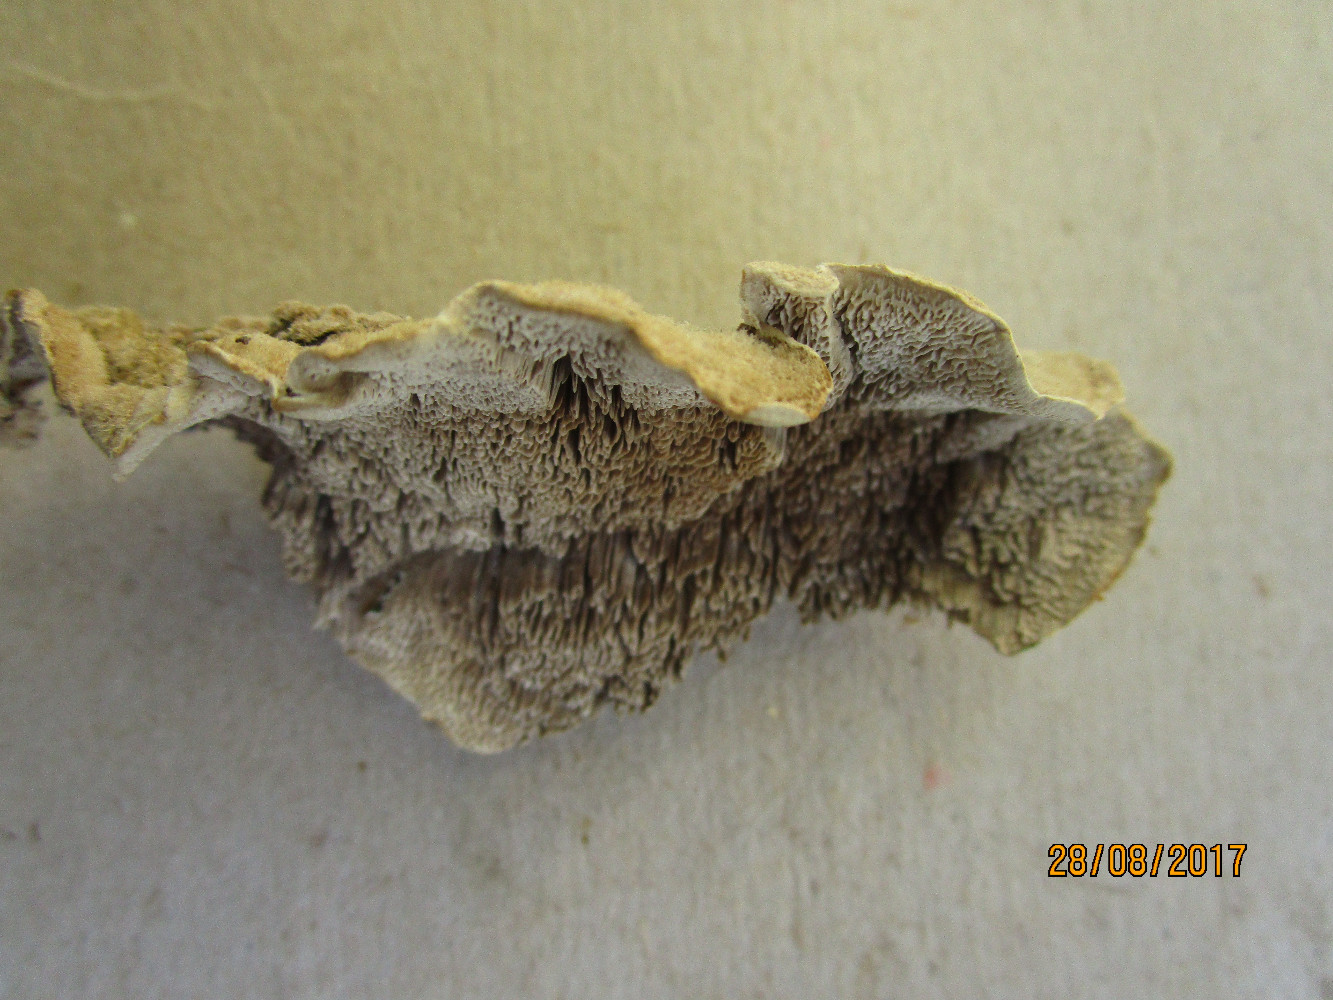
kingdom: Fungi
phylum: Basidiomycota
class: Agaricomycetes
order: Polyporales
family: Cerrenaceae
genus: Cerrena
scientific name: Cerrena unicolor
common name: ensfarvet læderporesvamp
